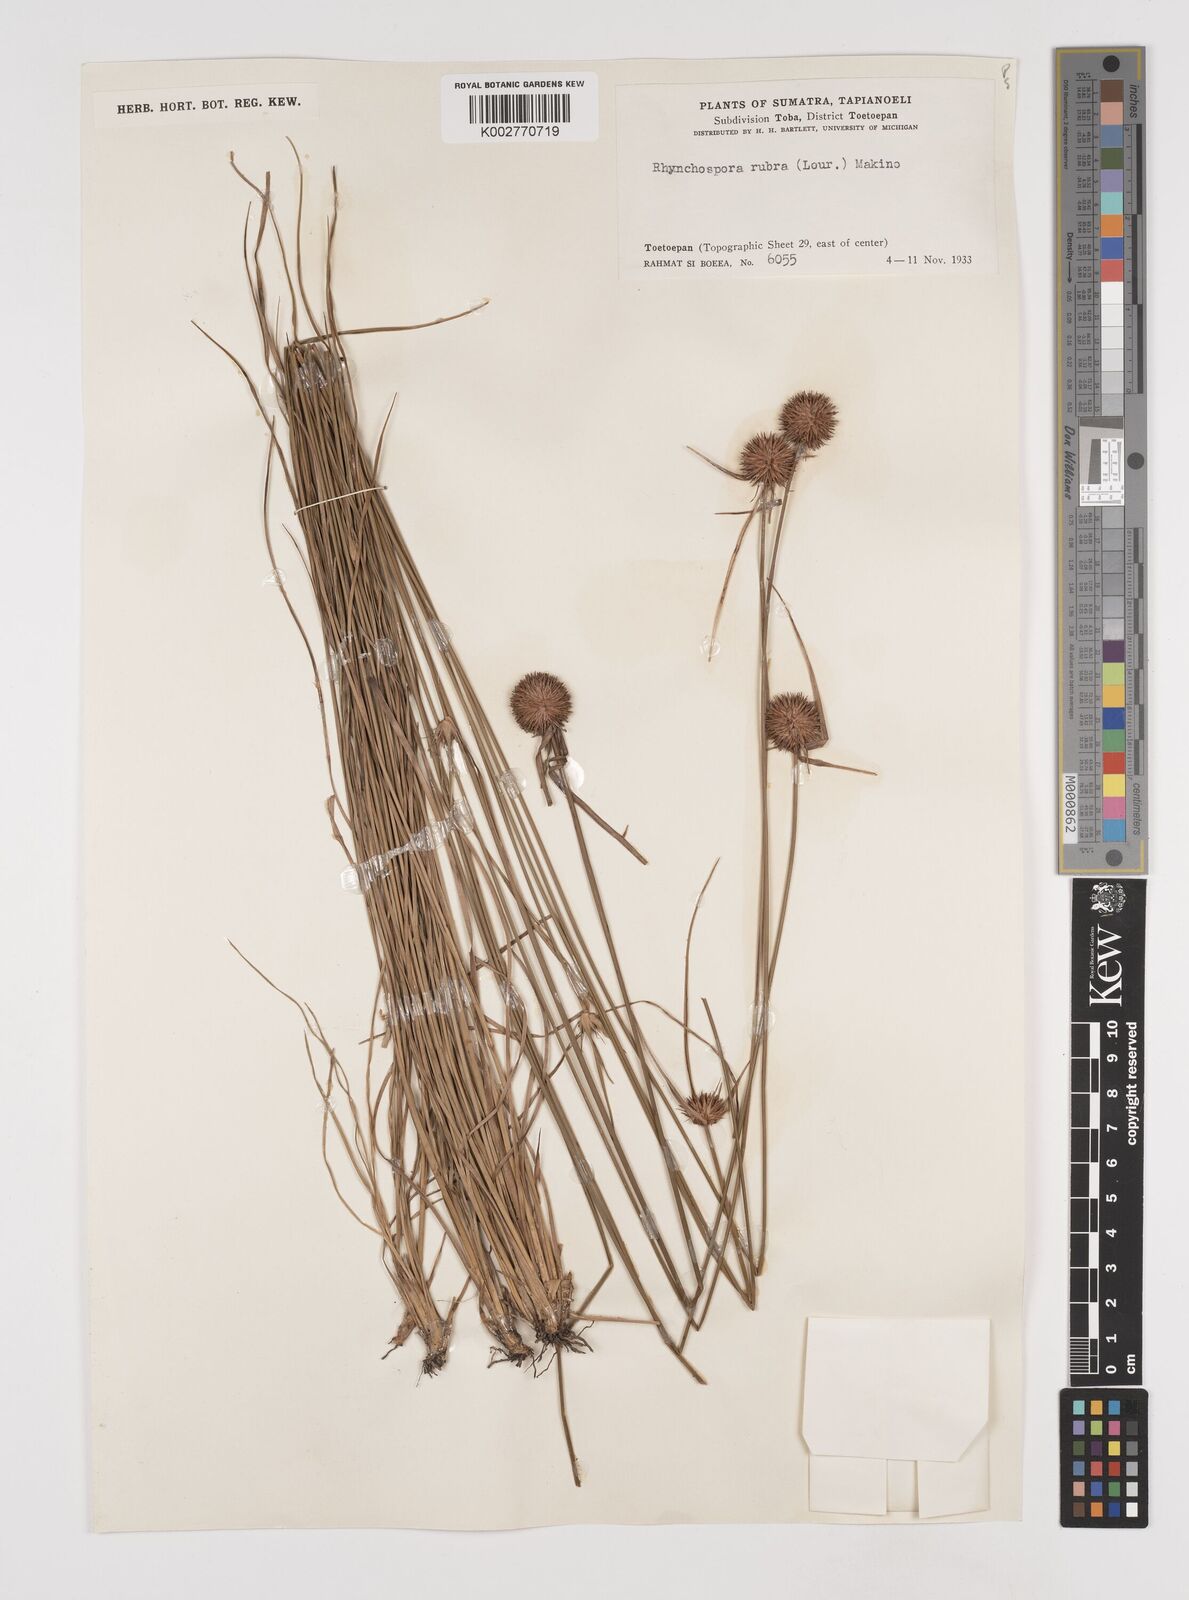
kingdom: Plantae
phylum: Tracheophyta
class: Liliopsida
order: Poales
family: Cyperaceae
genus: Rhynchospora
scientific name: Rhynchospora rubra
